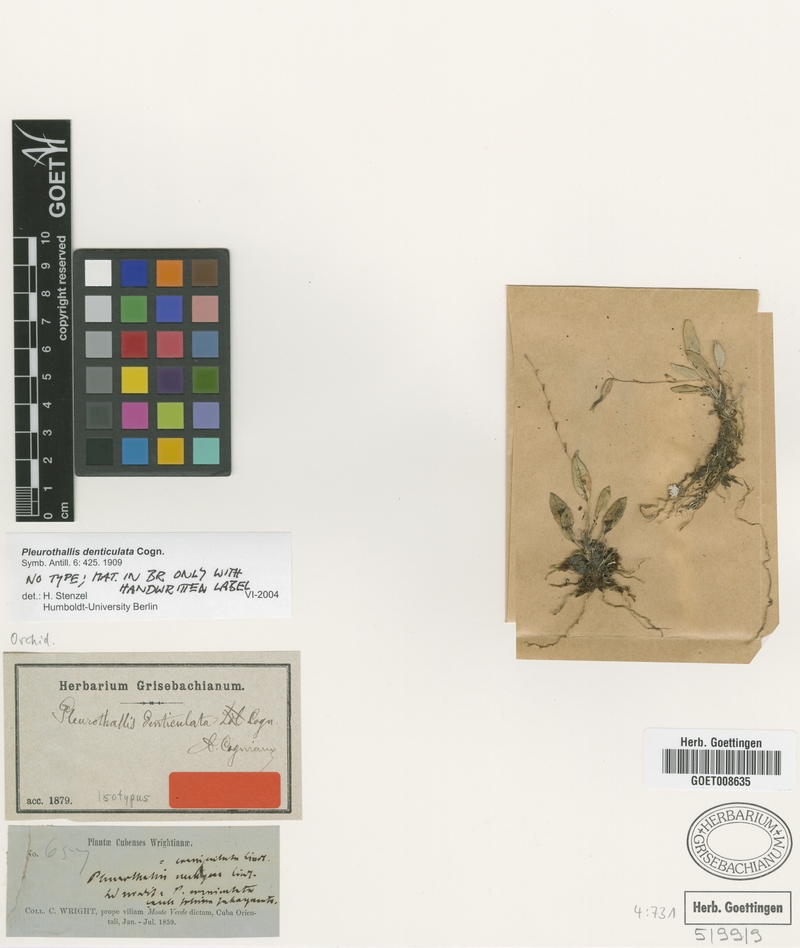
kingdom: Plantae
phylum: Tracheophyta
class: Liliopsida
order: Asparagales
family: Orchidaceae
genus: Acianthera
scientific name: Acianthera denticulata
